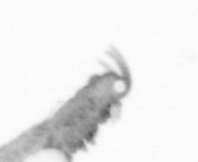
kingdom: Animalia
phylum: Annelida
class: Polychaeta
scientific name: Polychaeta
